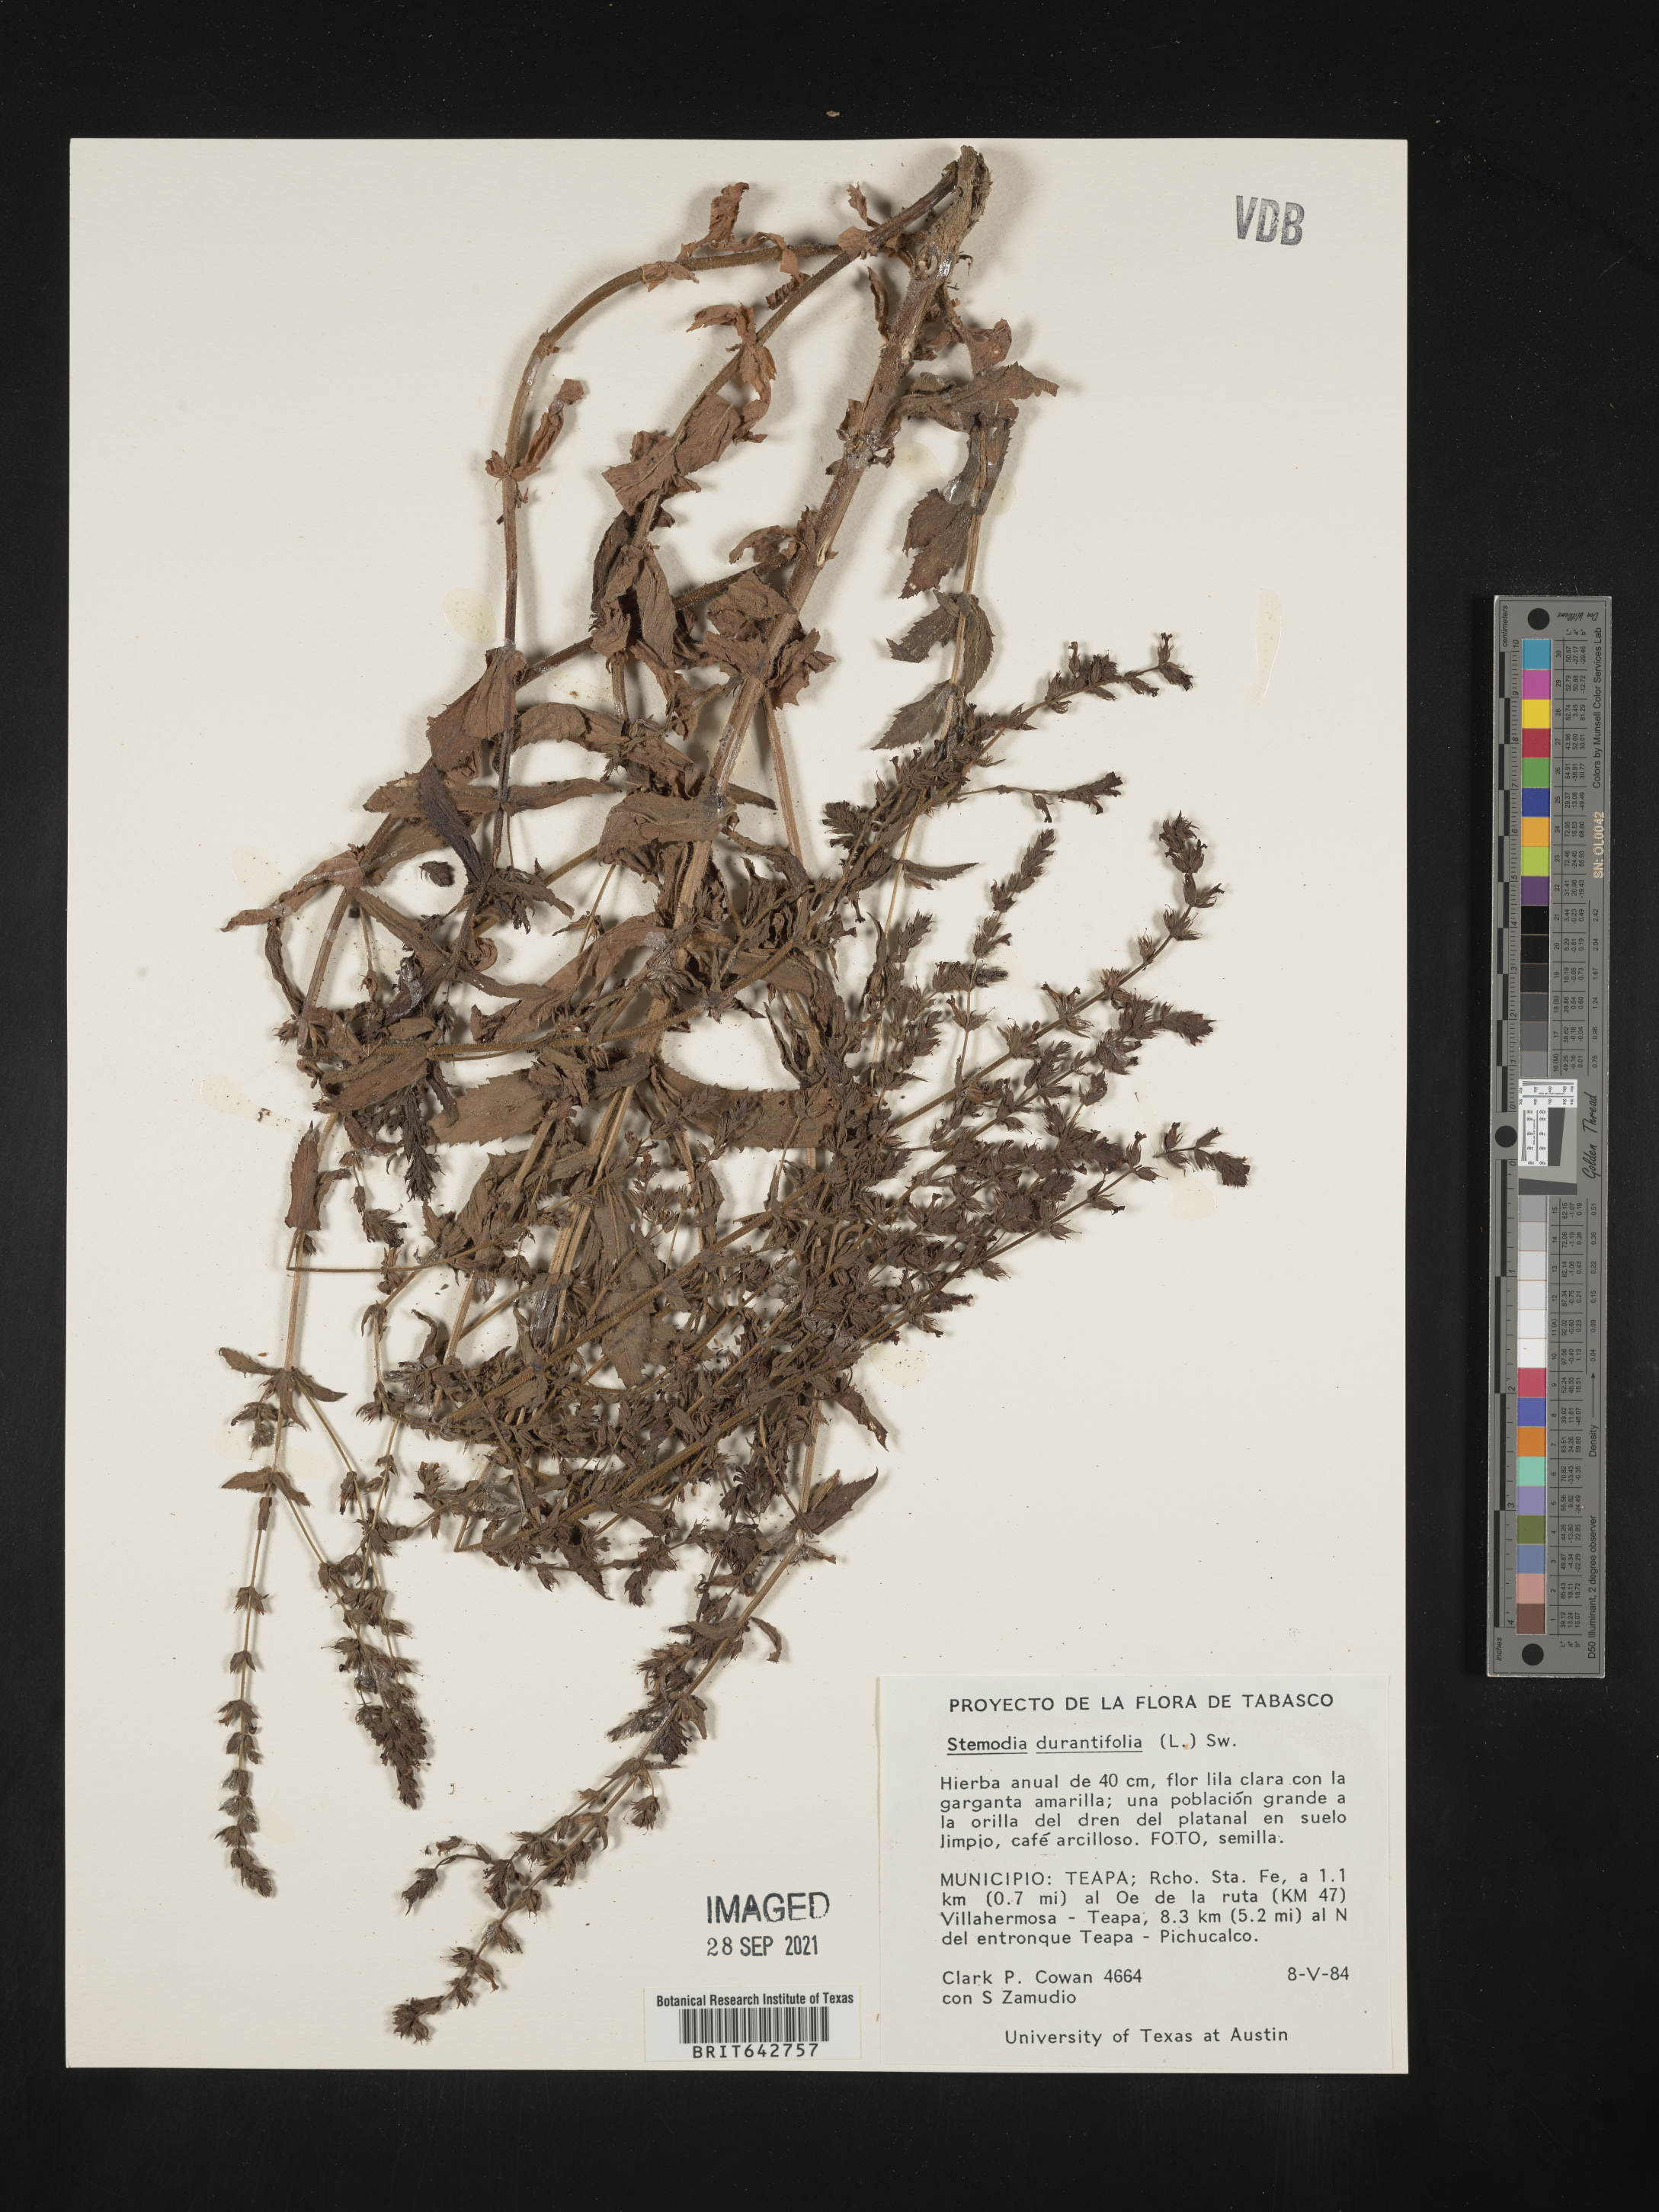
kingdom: Plantae
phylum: Tracheophyta
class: Magnoliopsida
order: Lamiales
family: Plantaginaceae
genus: Stemodia
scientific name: Stemodia
